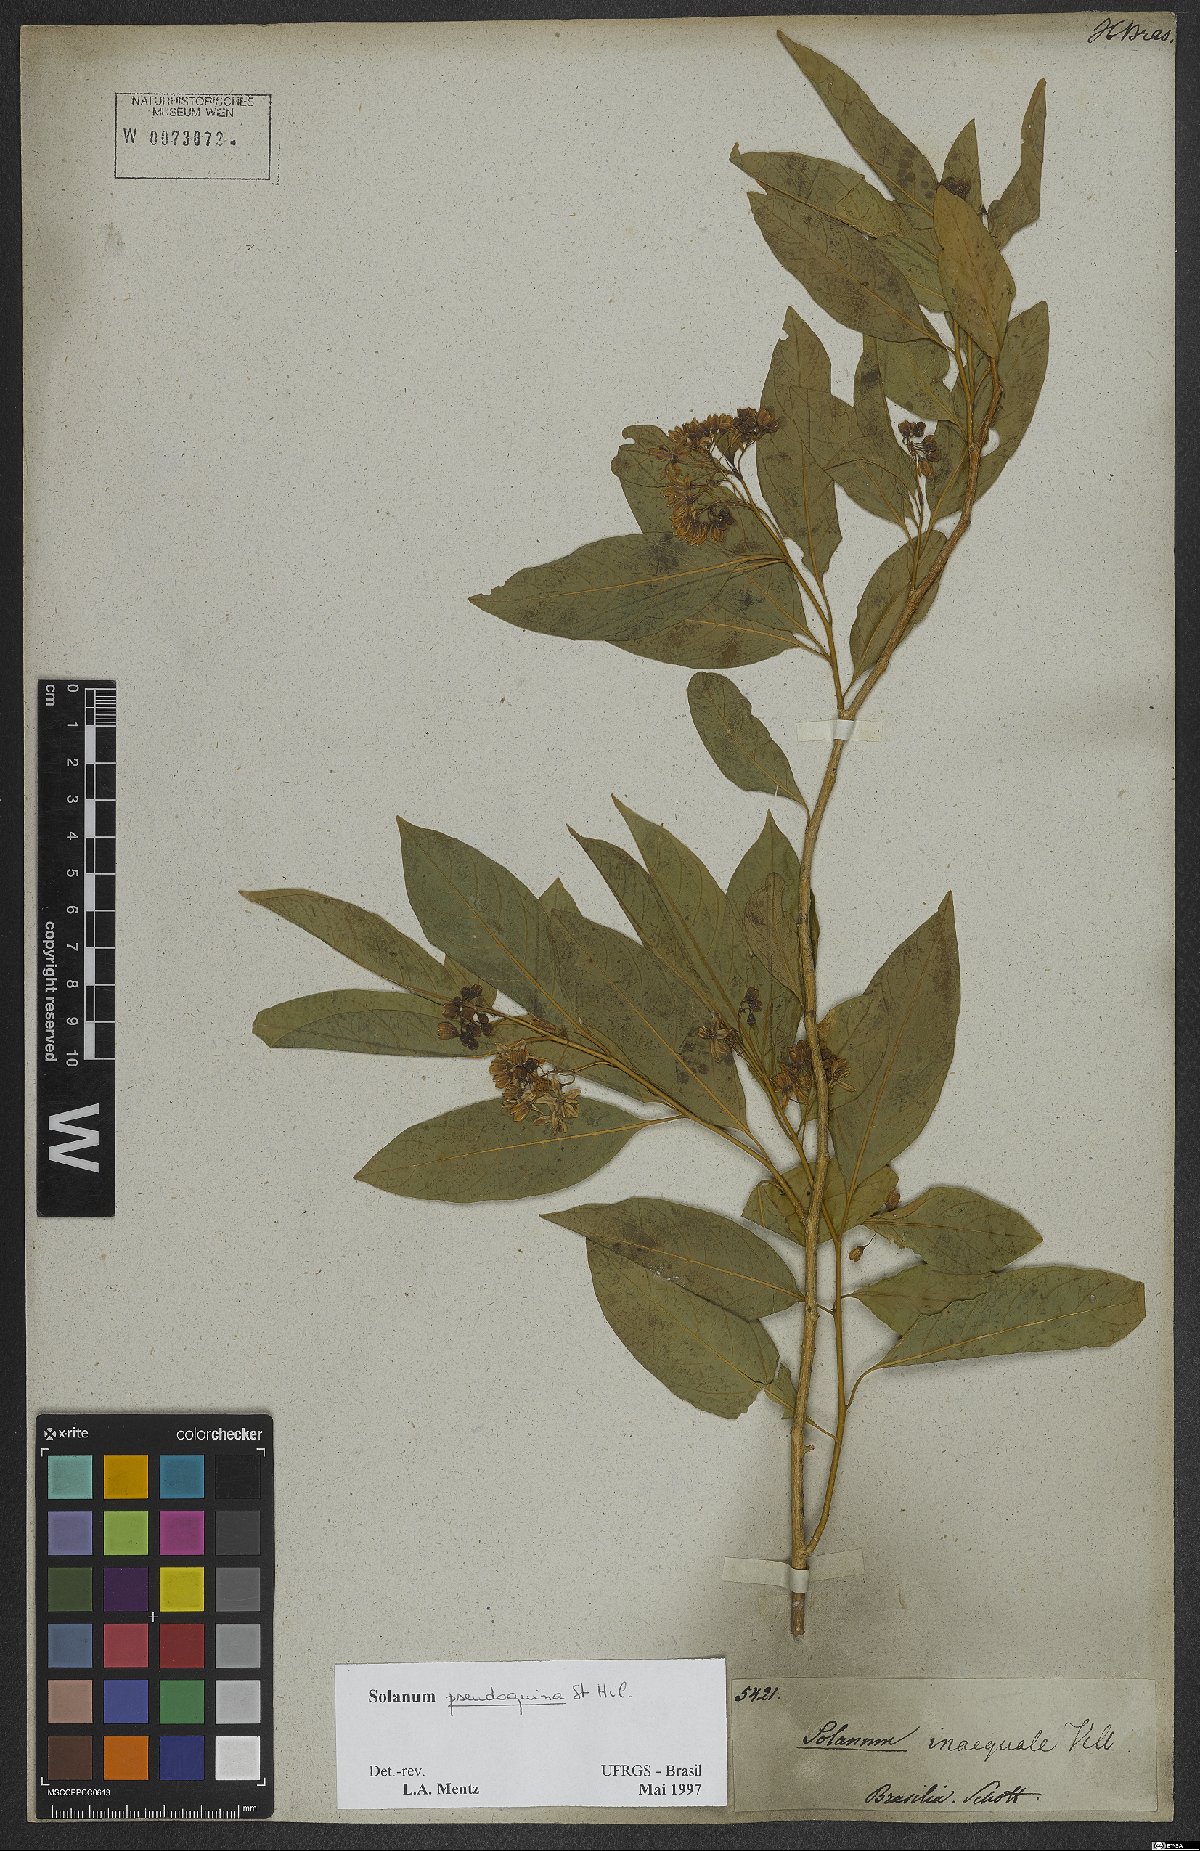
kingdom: Plantae
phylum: Tracheophyta
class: Magnoliopsida
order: Solanales
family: Solanaceae
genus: Solanum
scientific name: Solanum pseudoquina
